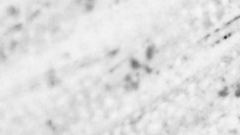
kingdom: Animalia
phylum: Chordata
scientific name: Chordata
